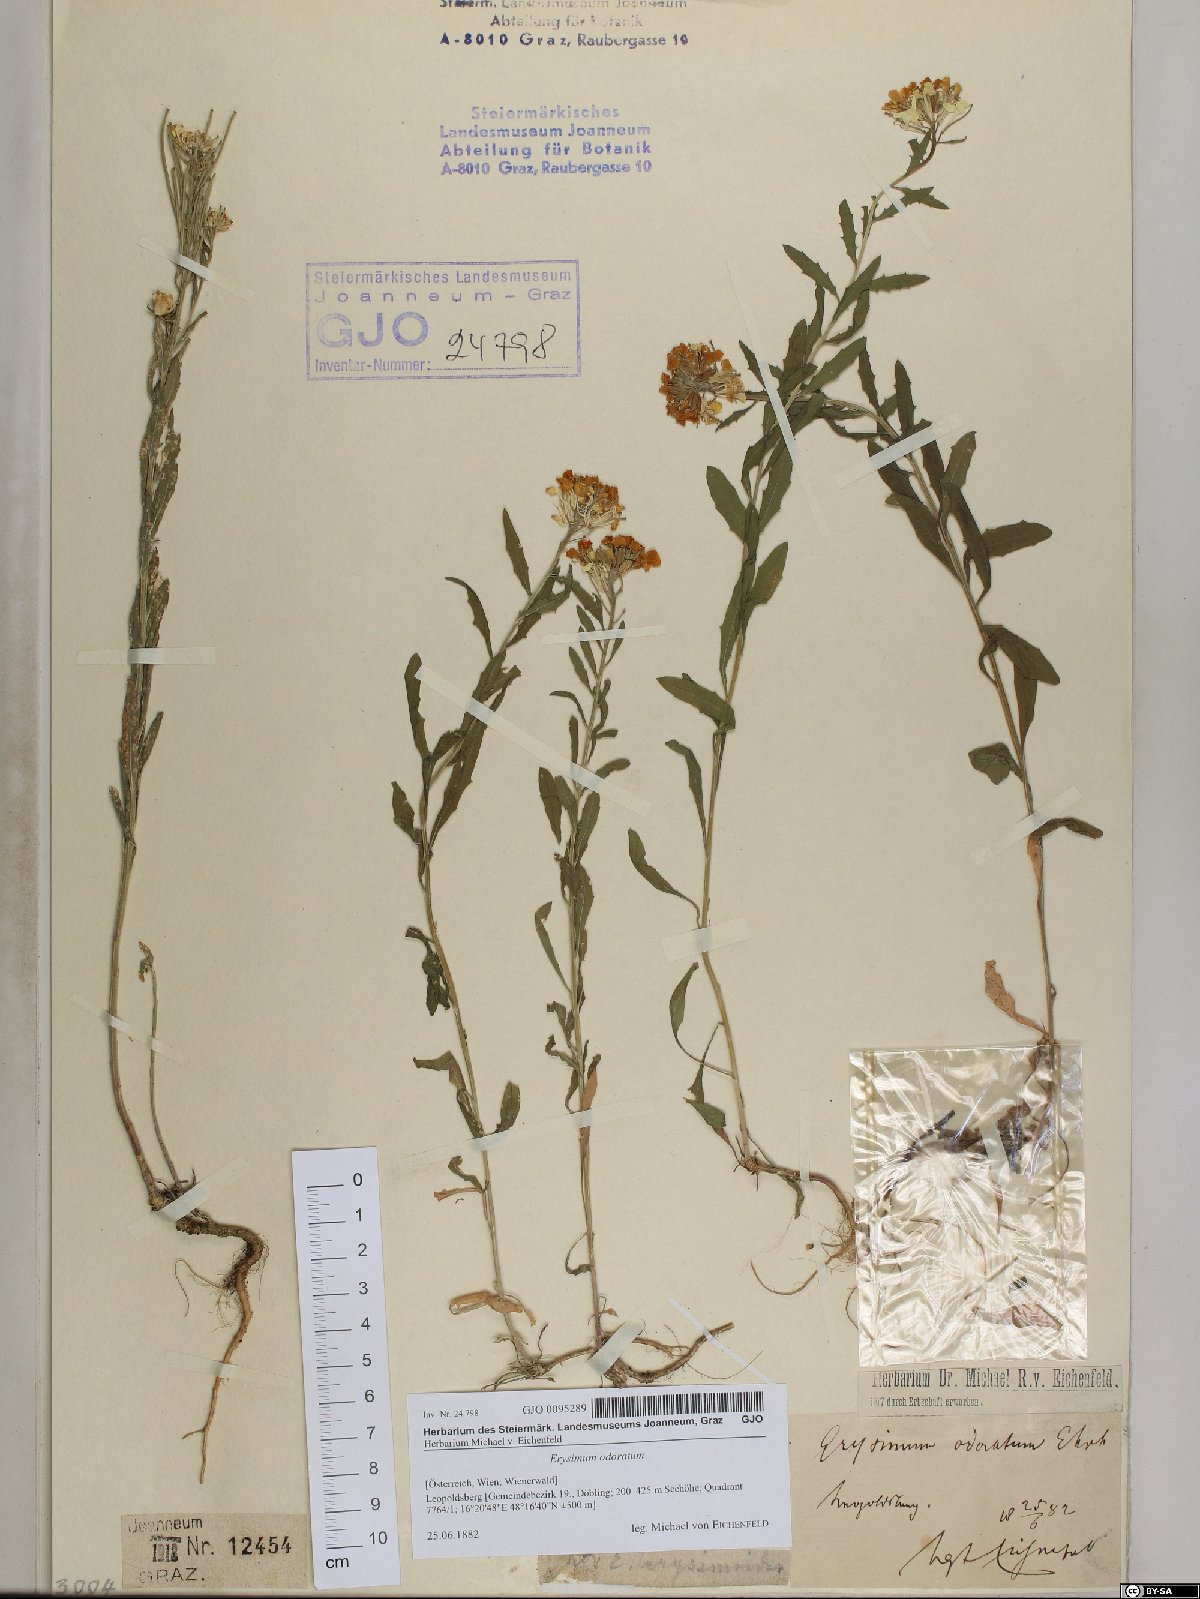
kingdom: Plantae
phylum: Tracheophyta
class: Magnoliopsida
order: Brassicales
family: Brassicaceae
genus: Erysimum
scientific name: Erysimum odoratum
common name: Smelly wallflower
